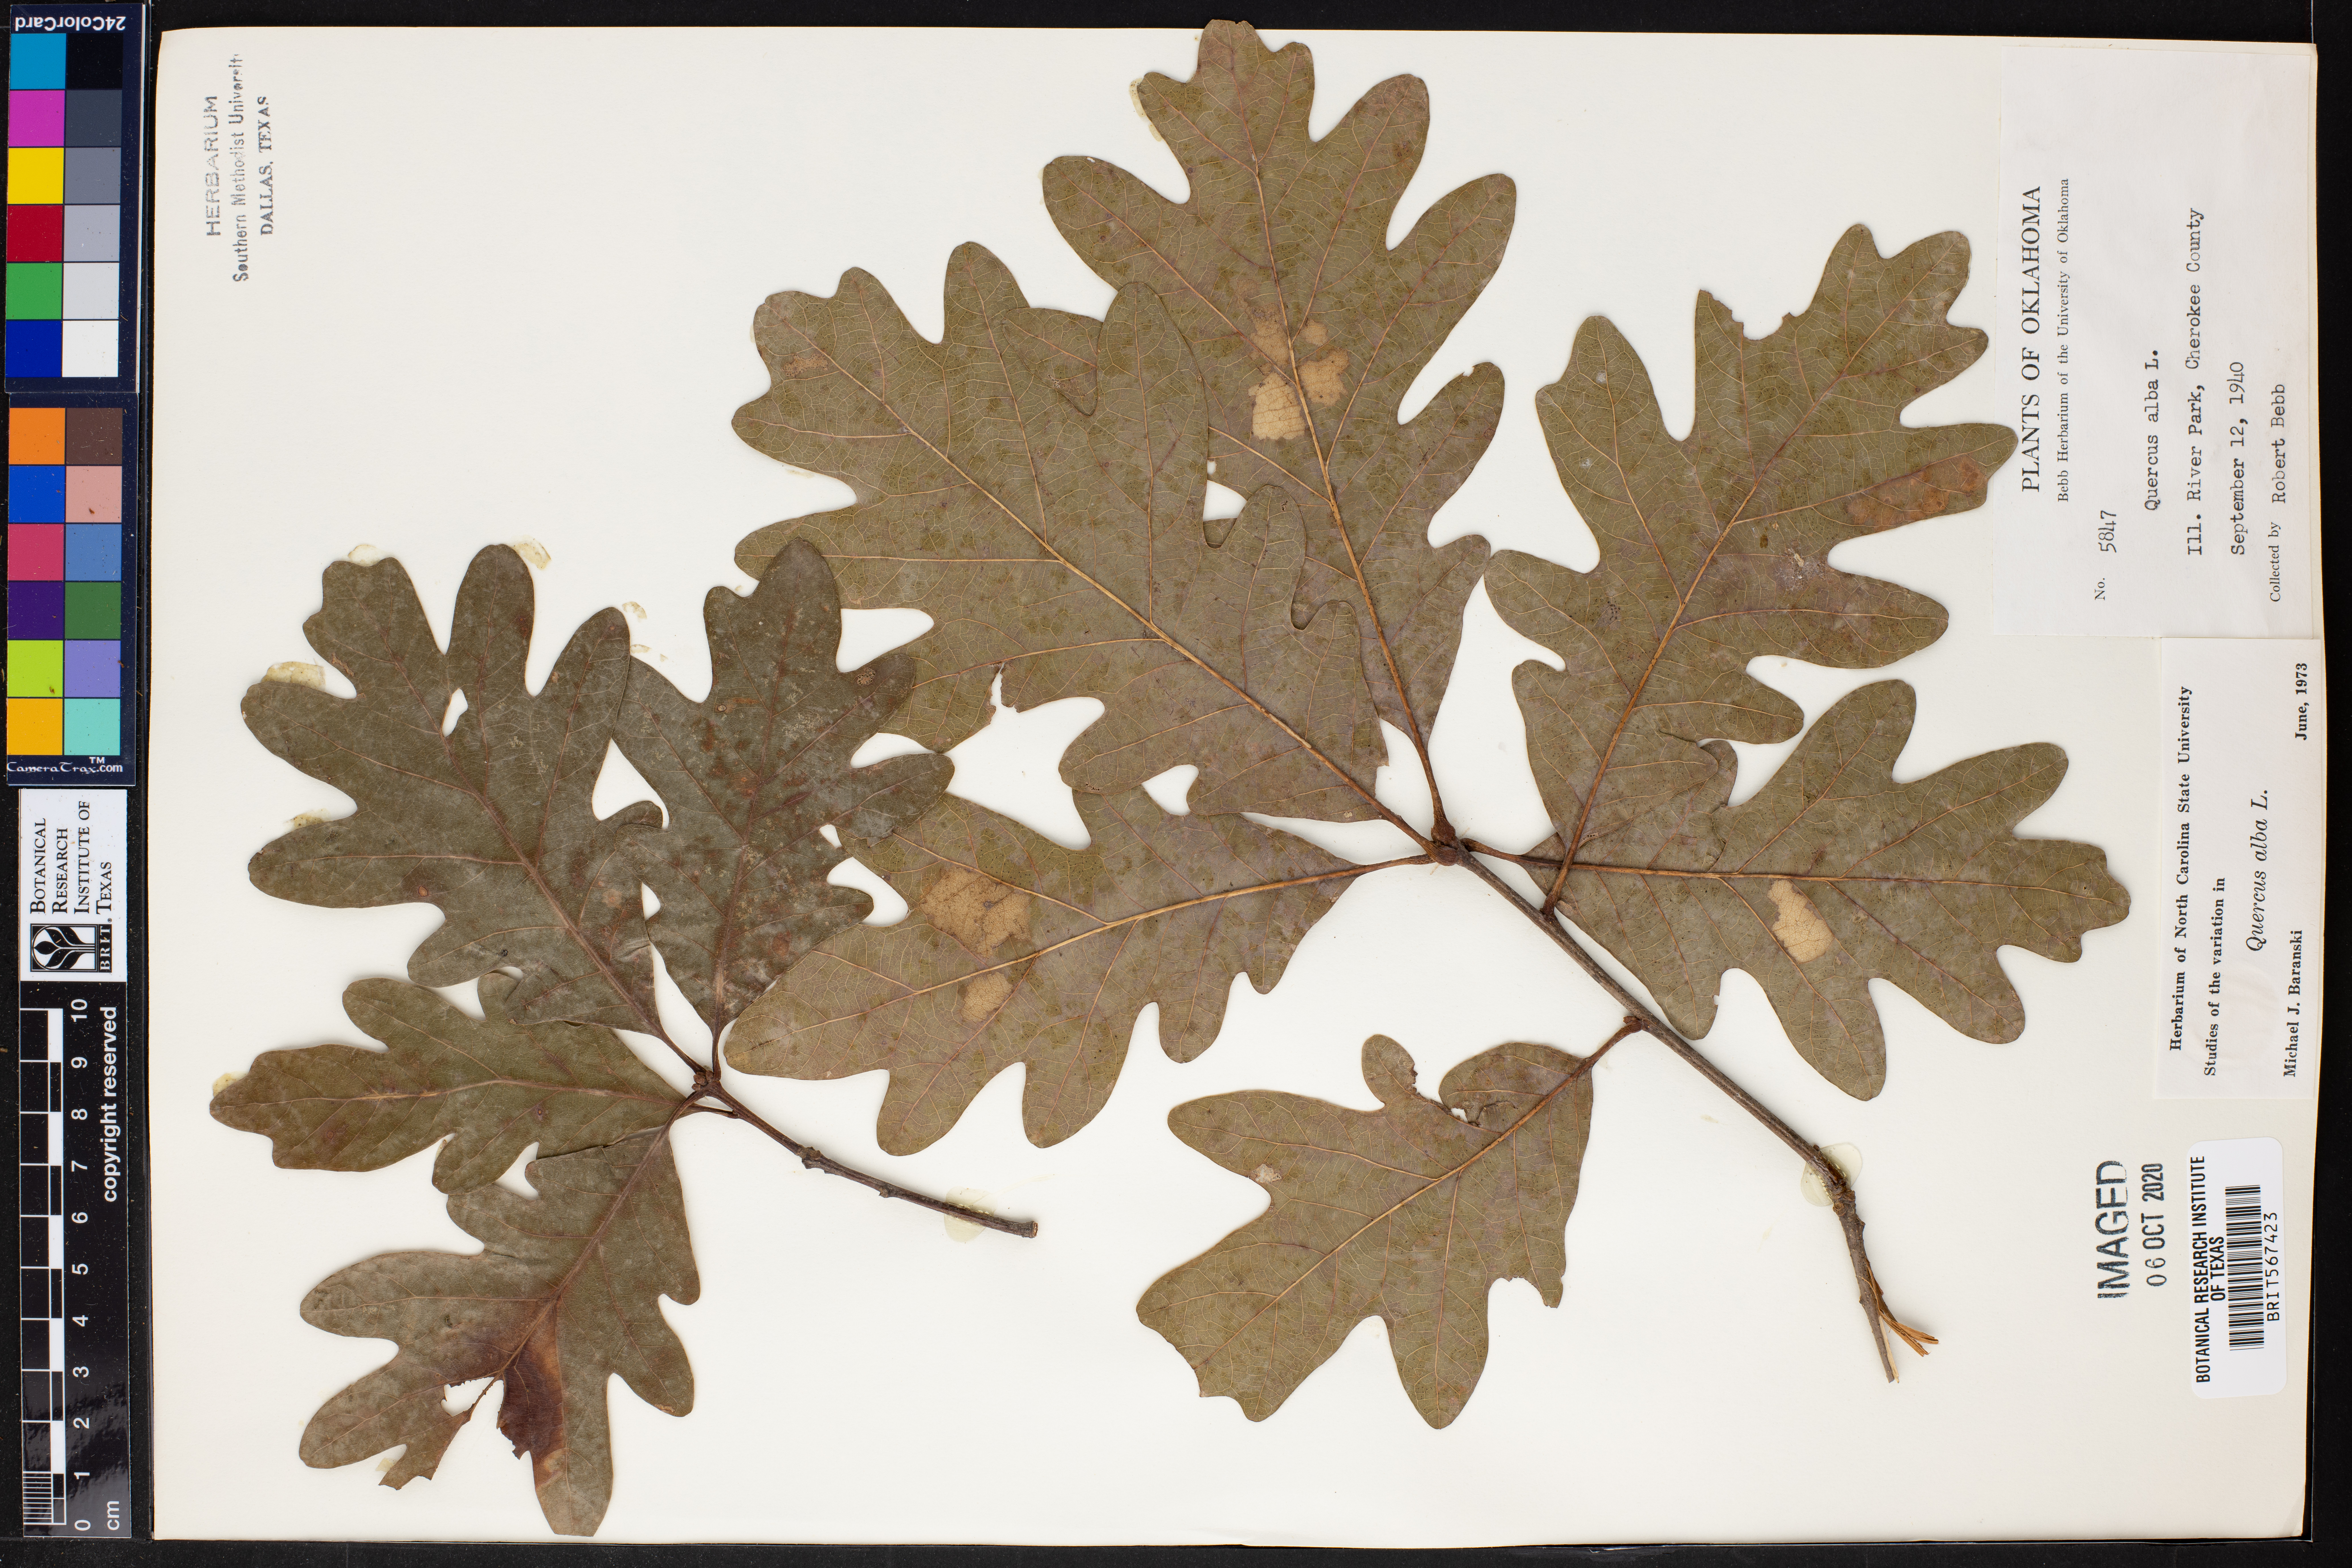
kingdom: Plantae
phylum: Tracheophyta
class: Magnoliopsida
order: Fagales
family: Fagaceae
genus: Quercus
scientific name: Quercus alba
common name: White oak
